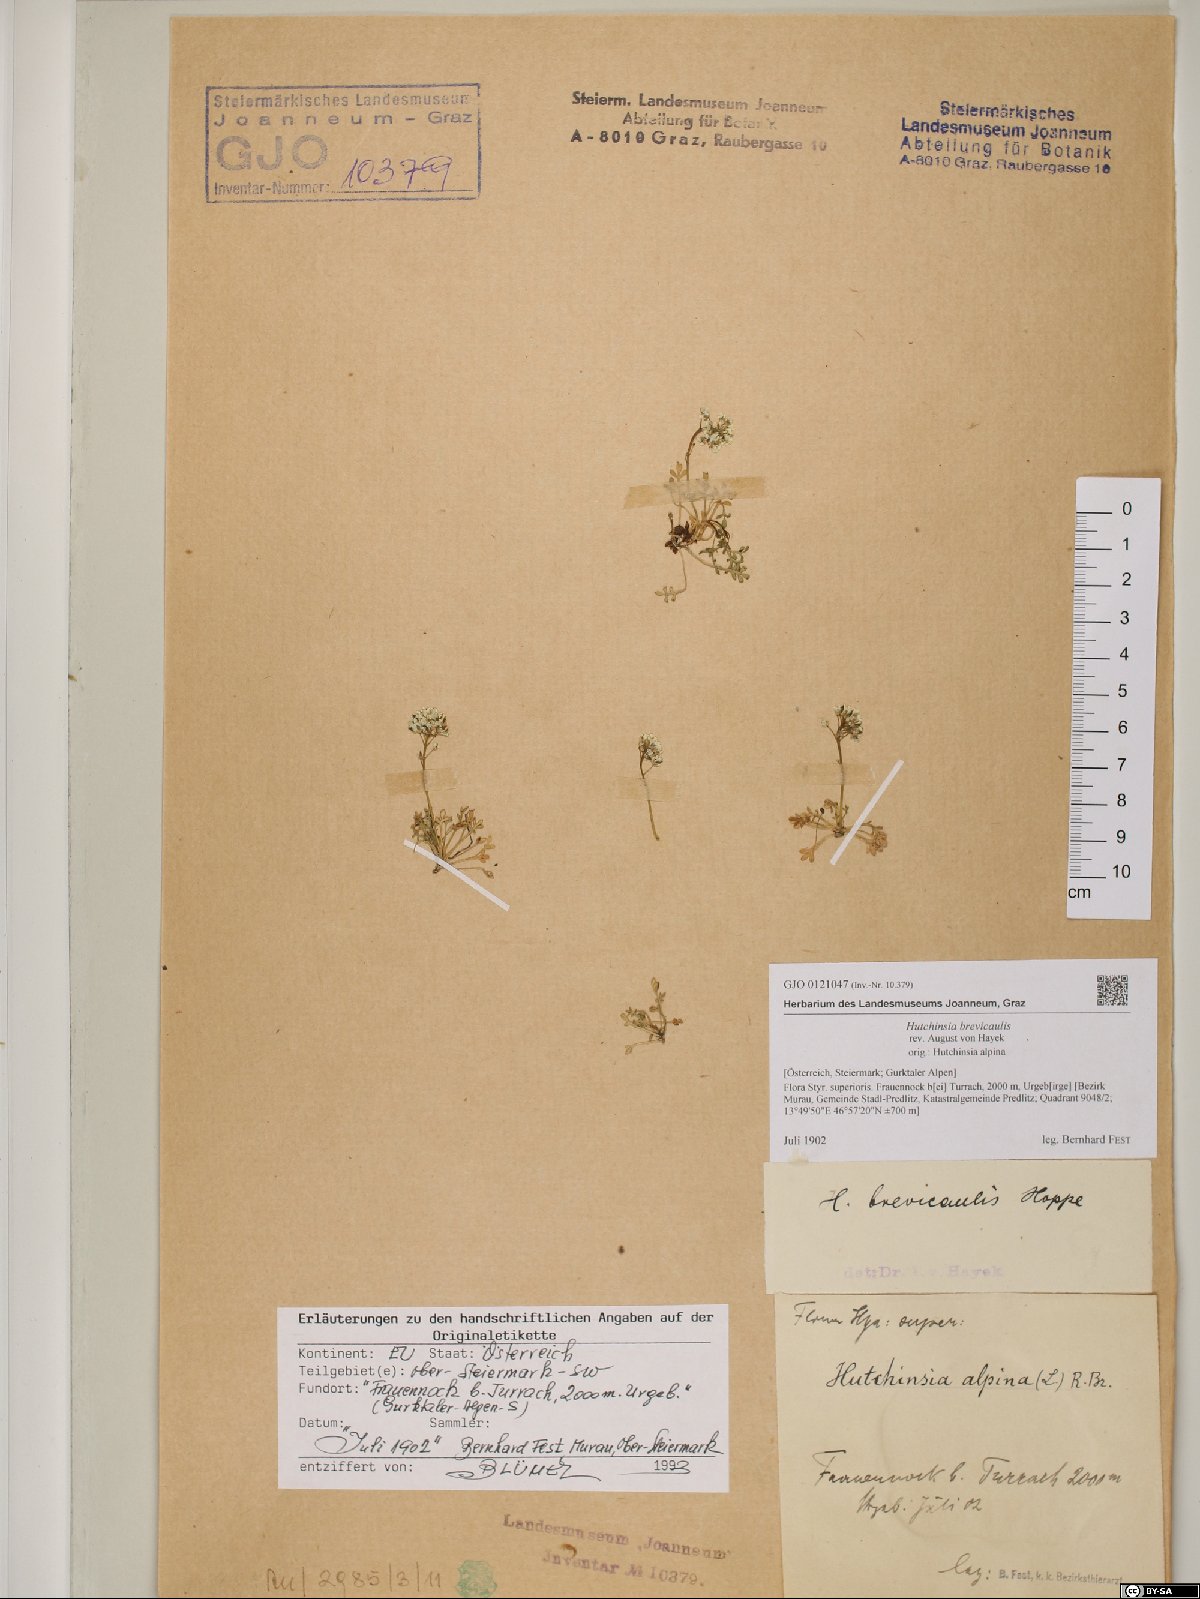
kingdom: Plantae
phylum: Tracheophyta
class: Magnoliopsida
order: Brassicales
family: Brassicaceae
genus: Hornungia
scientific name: Hornungia alpina
